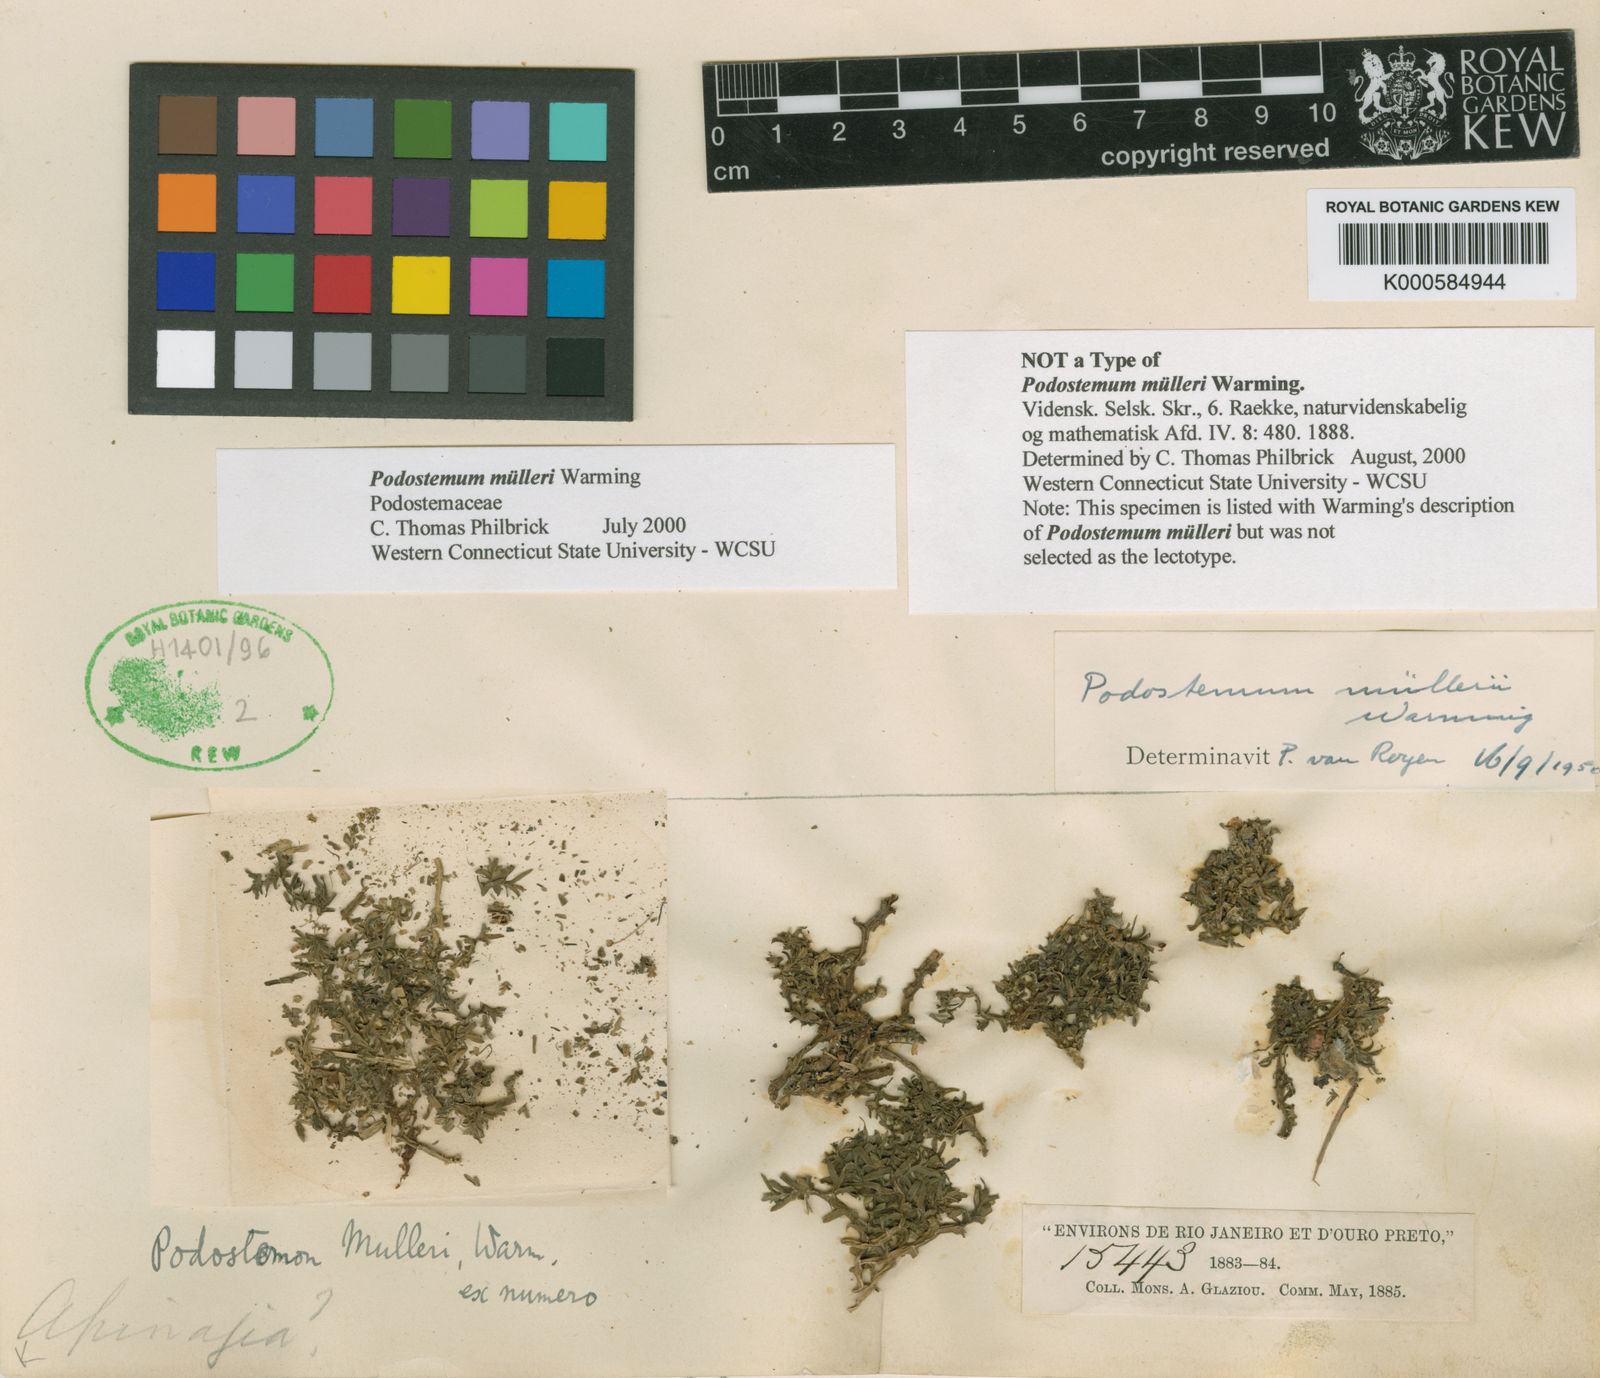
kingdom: Plantae
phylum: Tracheophyta
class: Magnoliopsida
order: Malpighiales
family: Podostemaceae
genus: Podostemum
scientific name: Podostemum muelleri
